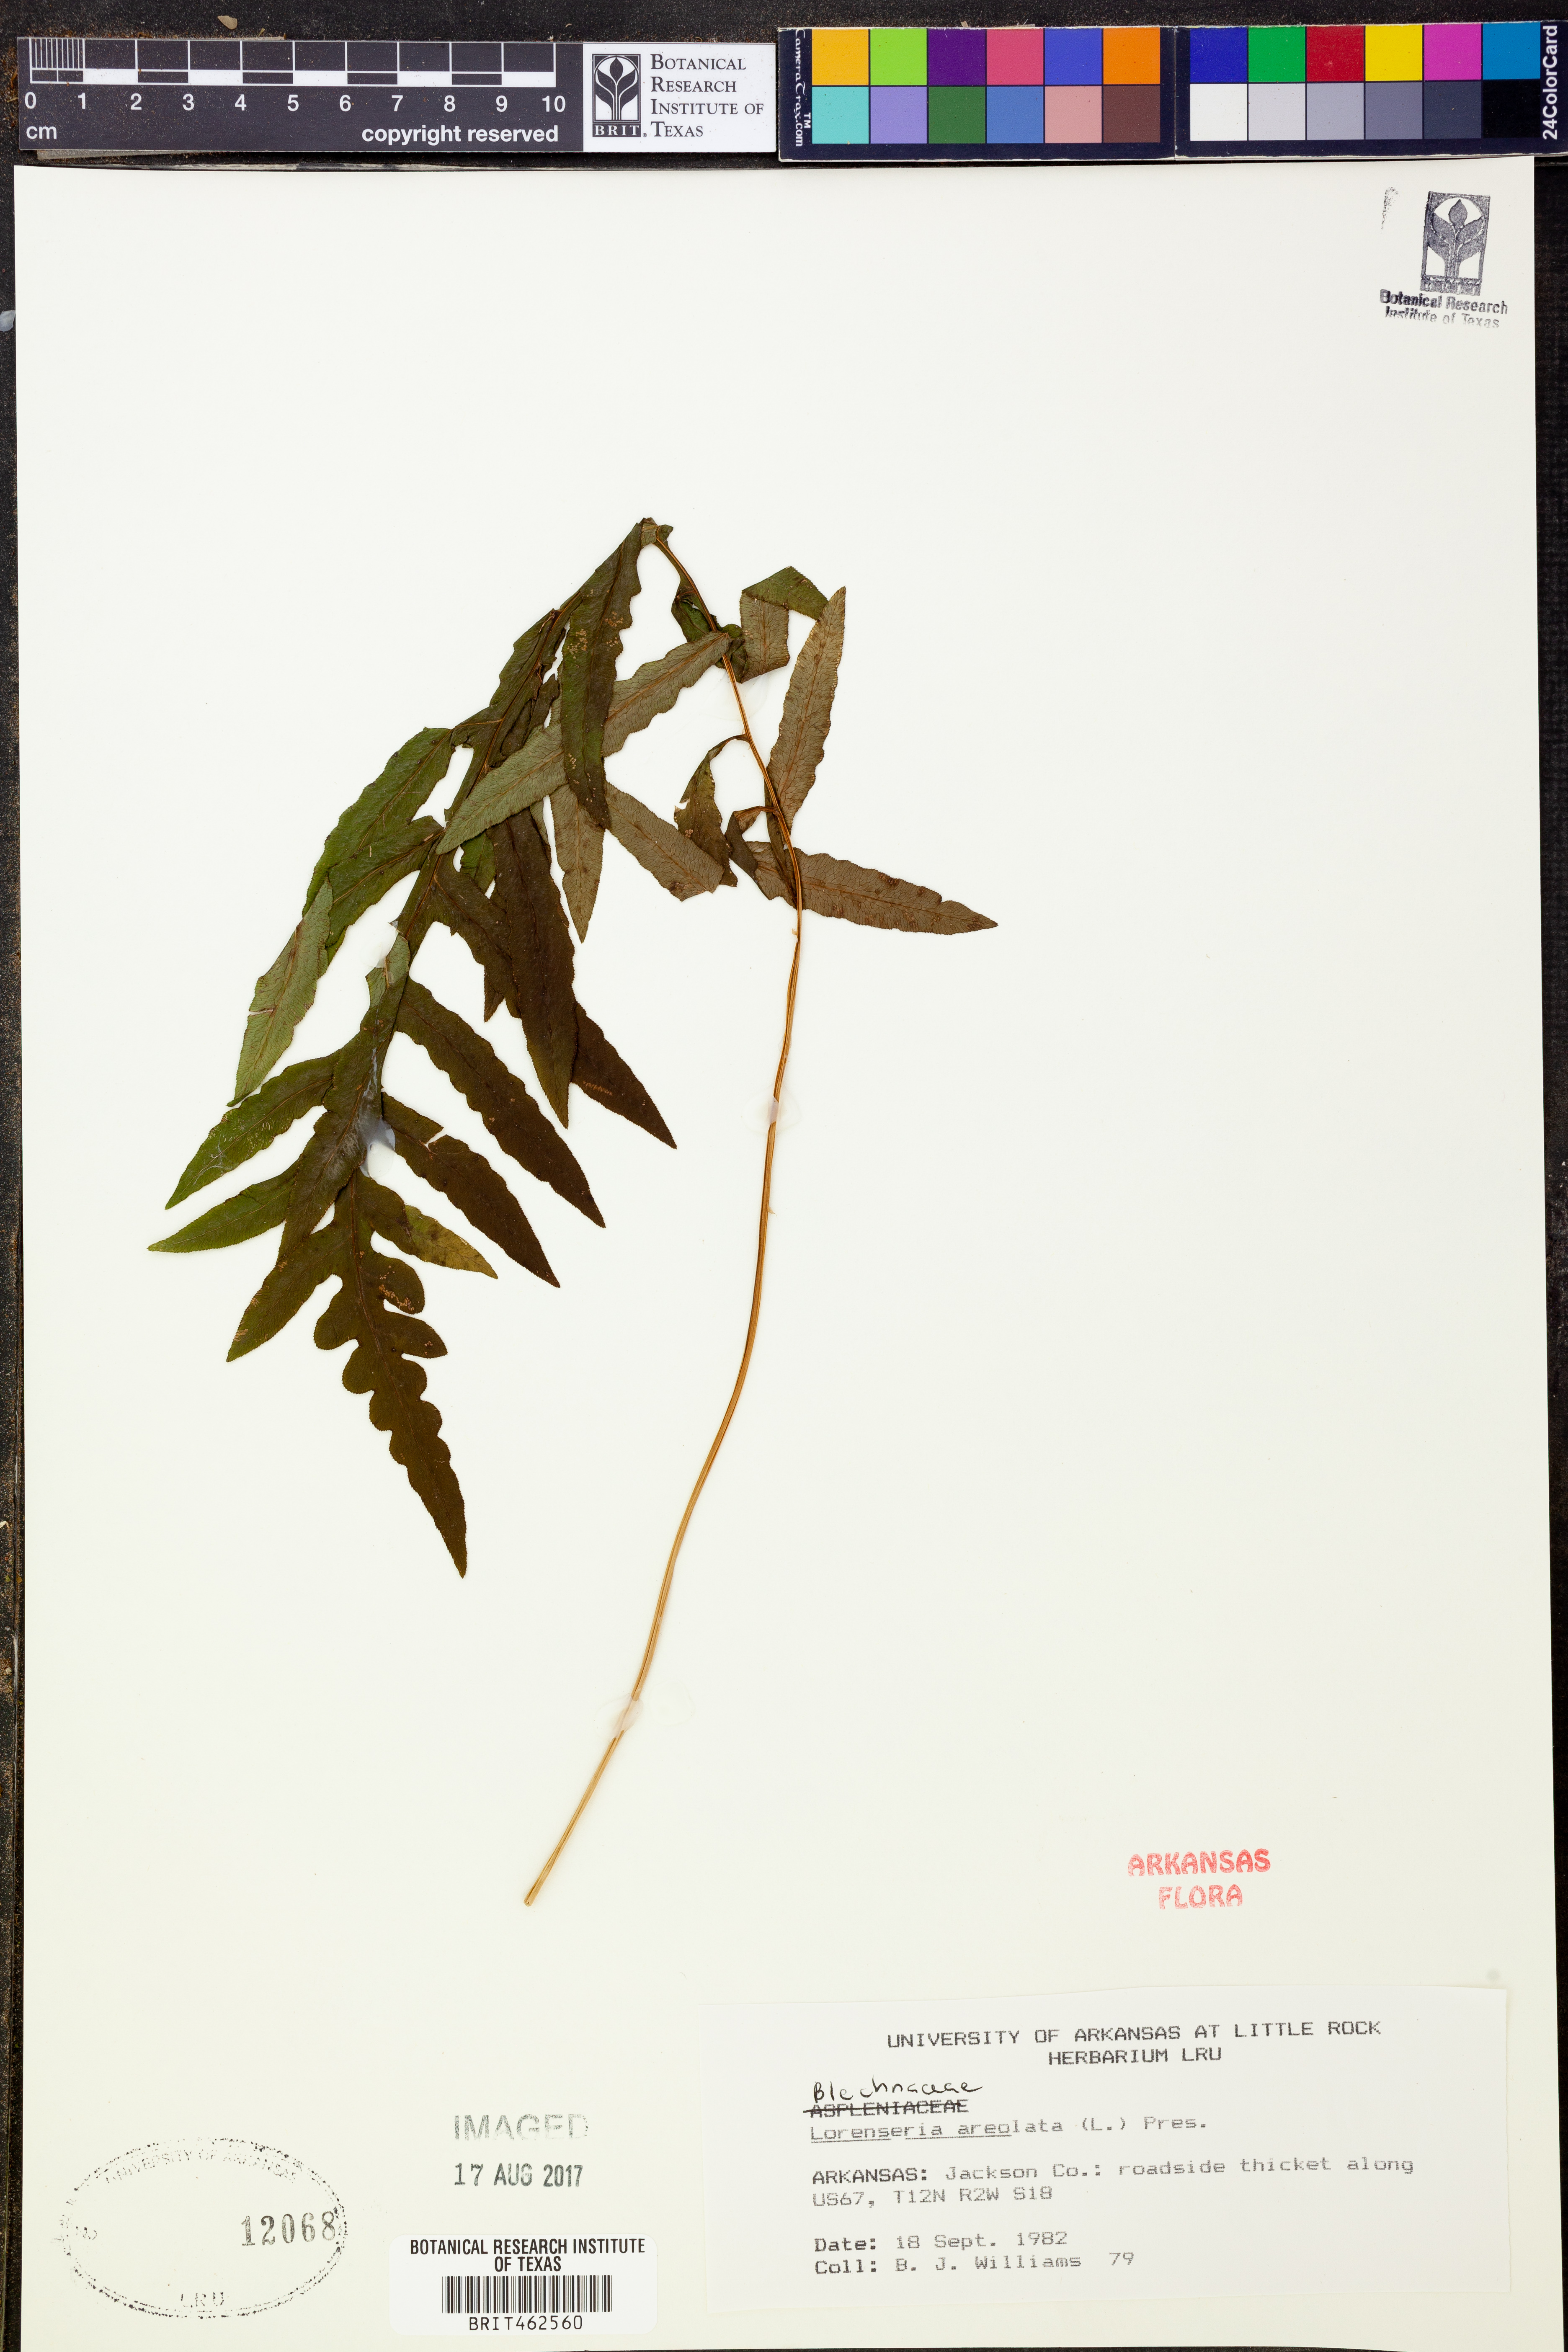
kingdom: Plantae
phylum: Tracheophyta
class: Polypodiopsida
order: Polypodiales
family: Blechnaceae
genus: Lorinseria
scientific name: Lorinseria areolata
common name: Dwarf chain fern
